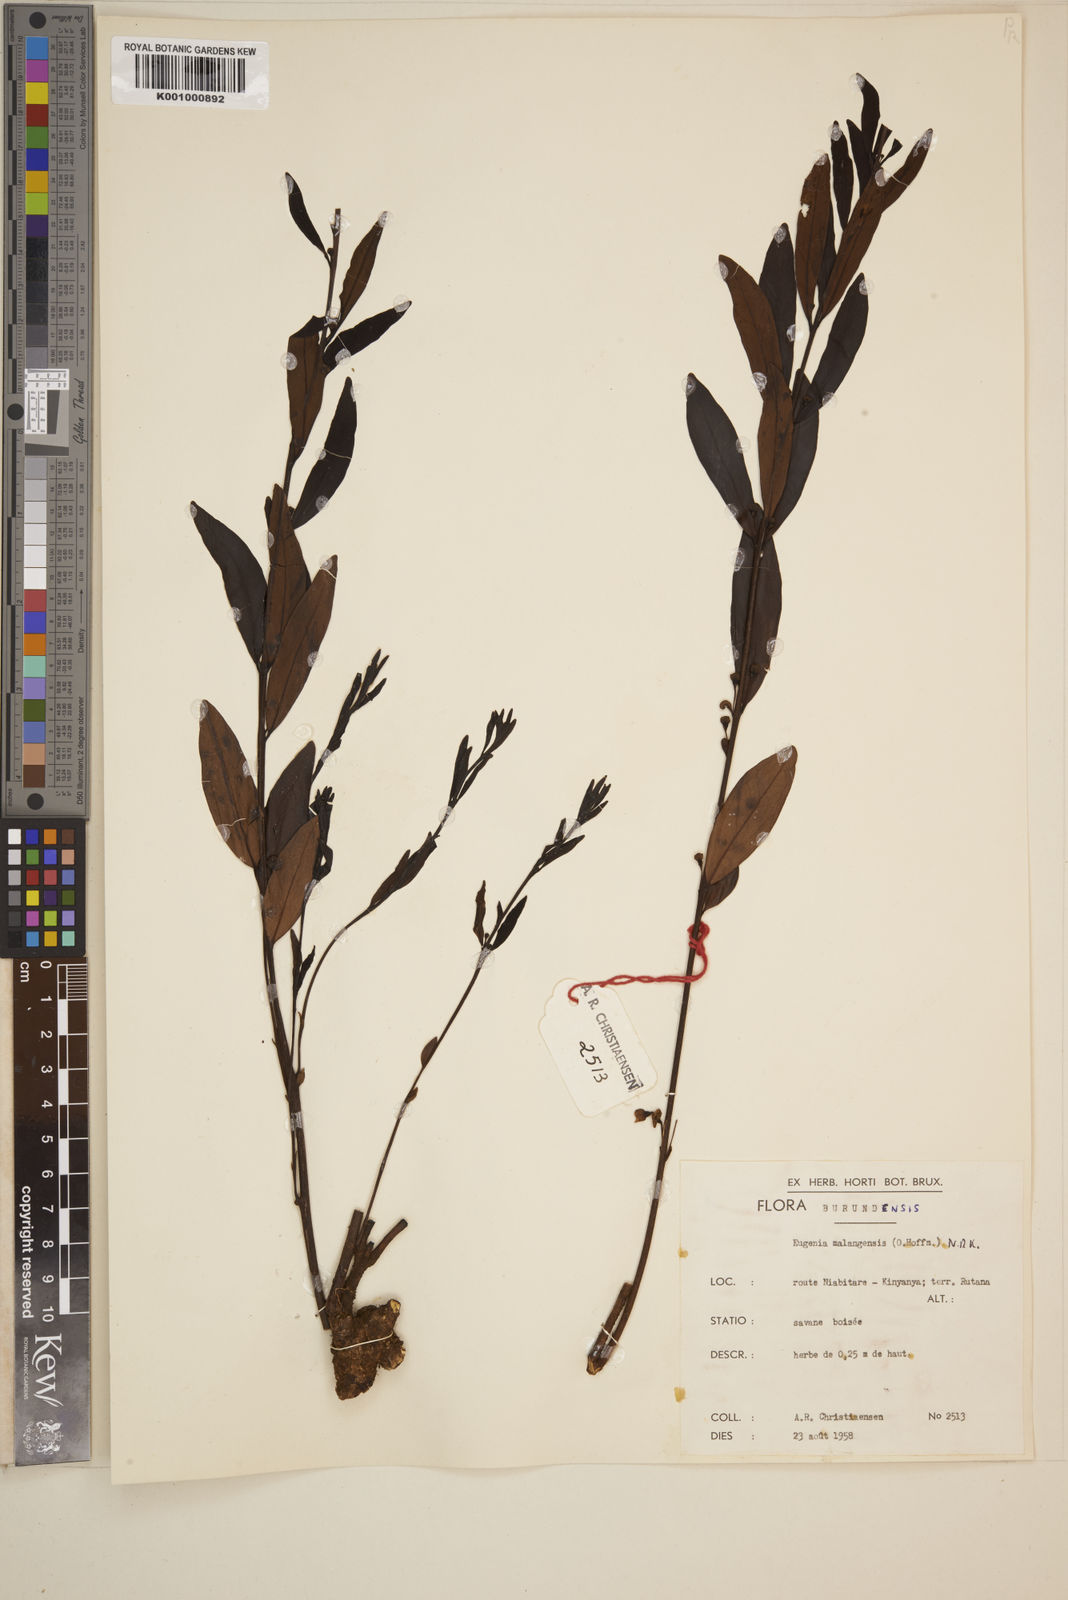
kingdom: Plantae
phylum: Tracheophyta
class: Magnoliopsida
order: Myrtales
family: Myrtaceae
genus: Eugenia
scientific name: Eugenia malangensis
